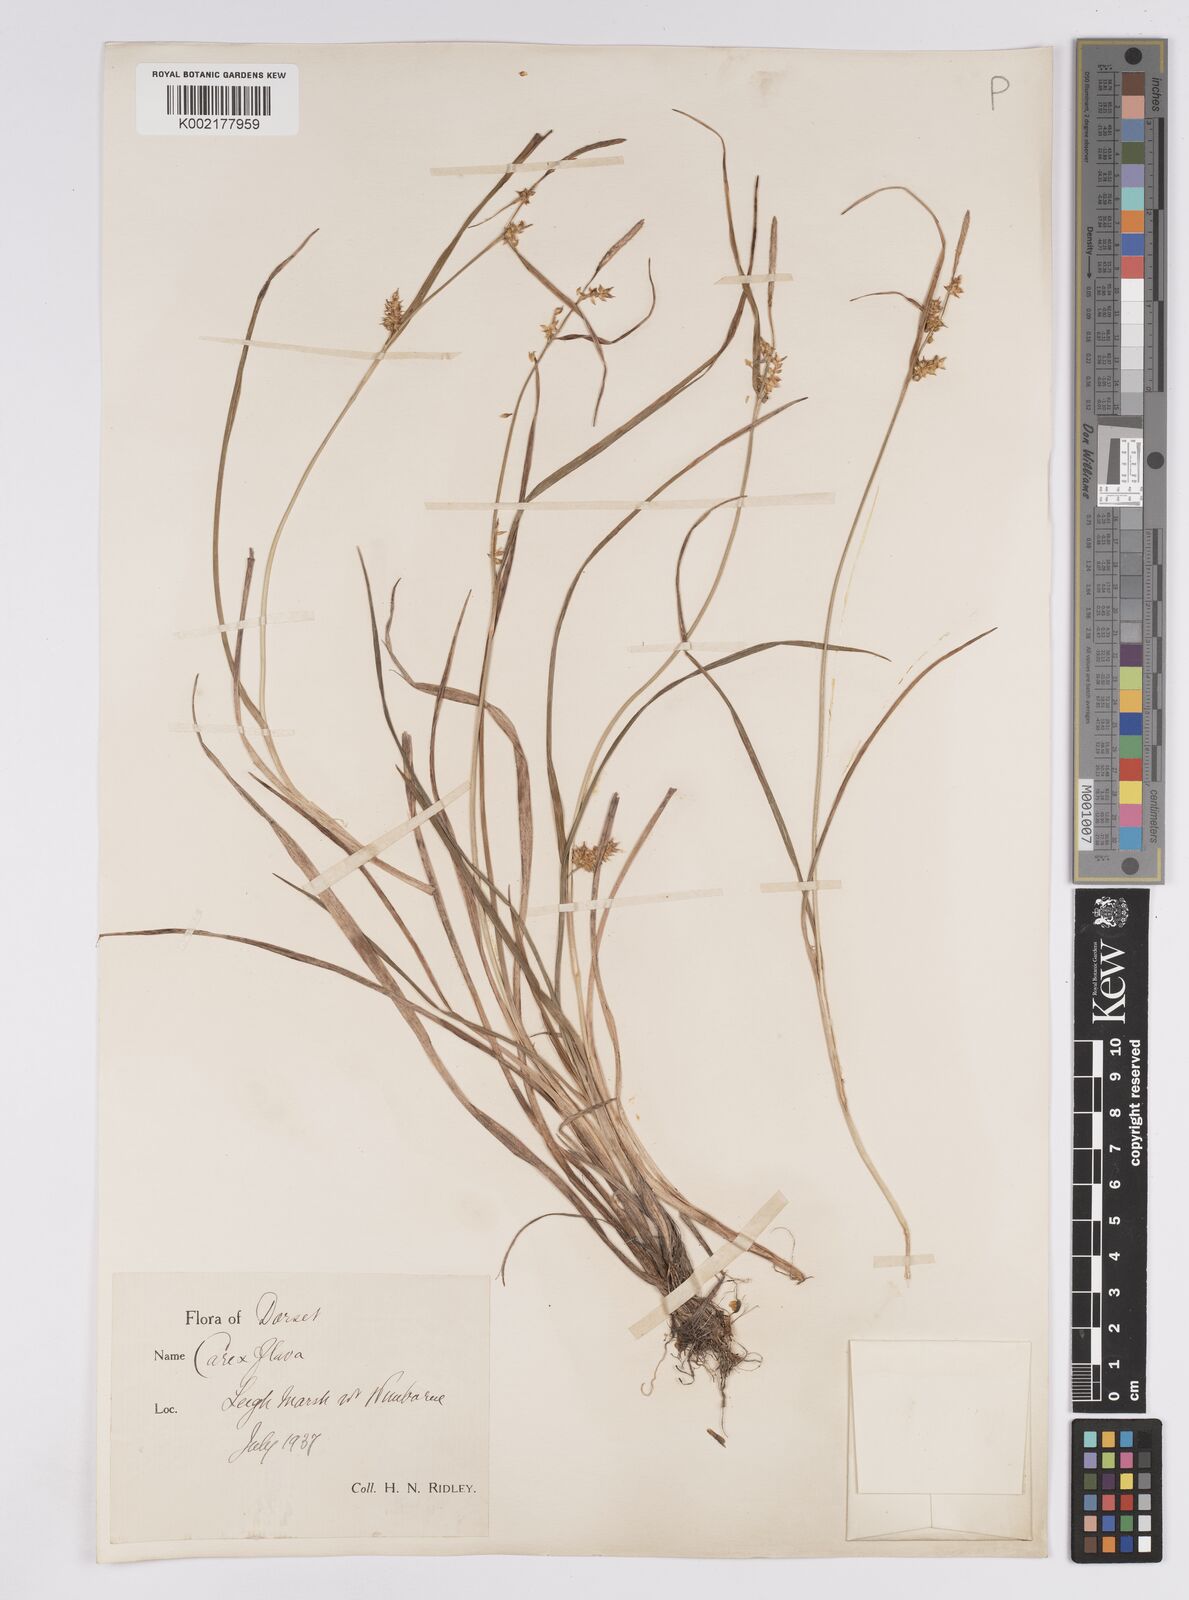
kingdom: Plantae
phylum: Tracheophyta
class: Liliopsida
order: Poales
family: Cyperaceae
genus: Carex
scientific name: Carex demissa
